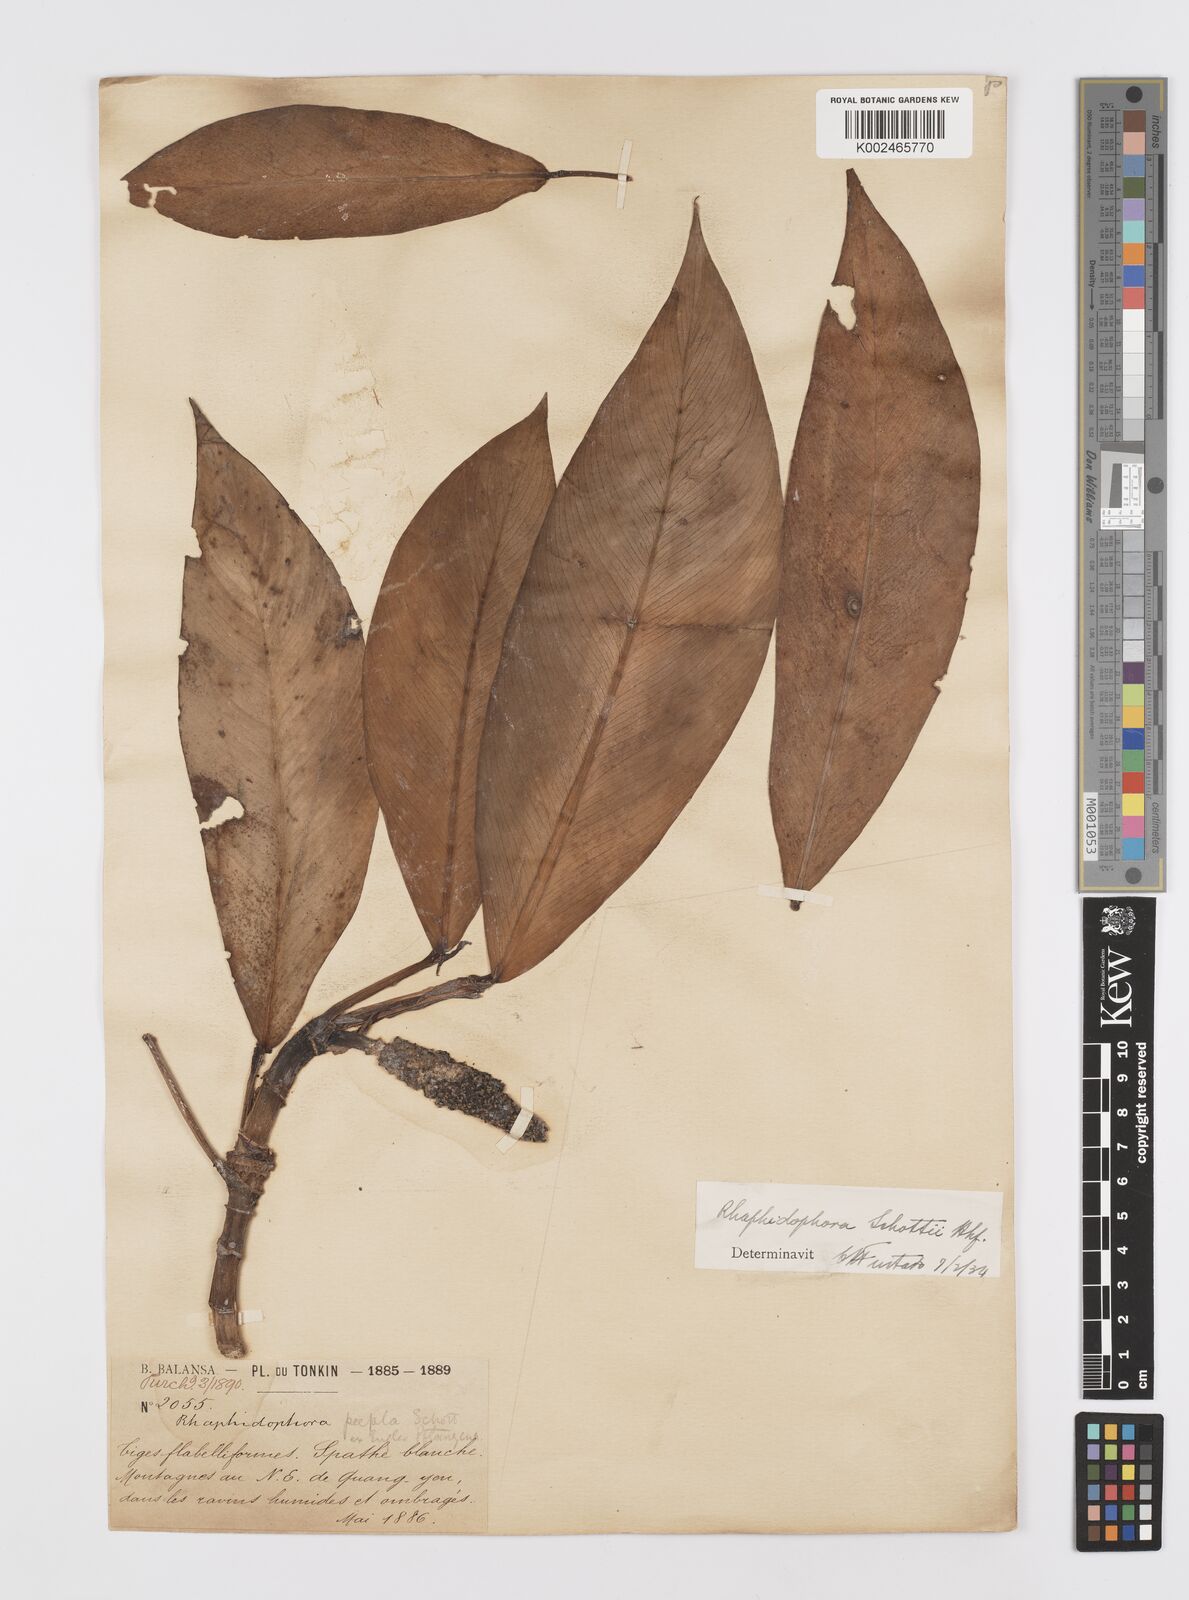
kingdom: Plantae
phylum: Tracheophyta
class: Liliopsida
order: Alismatales
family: Araceae
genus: Rhaphidophora
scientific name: Rhaphidophora
